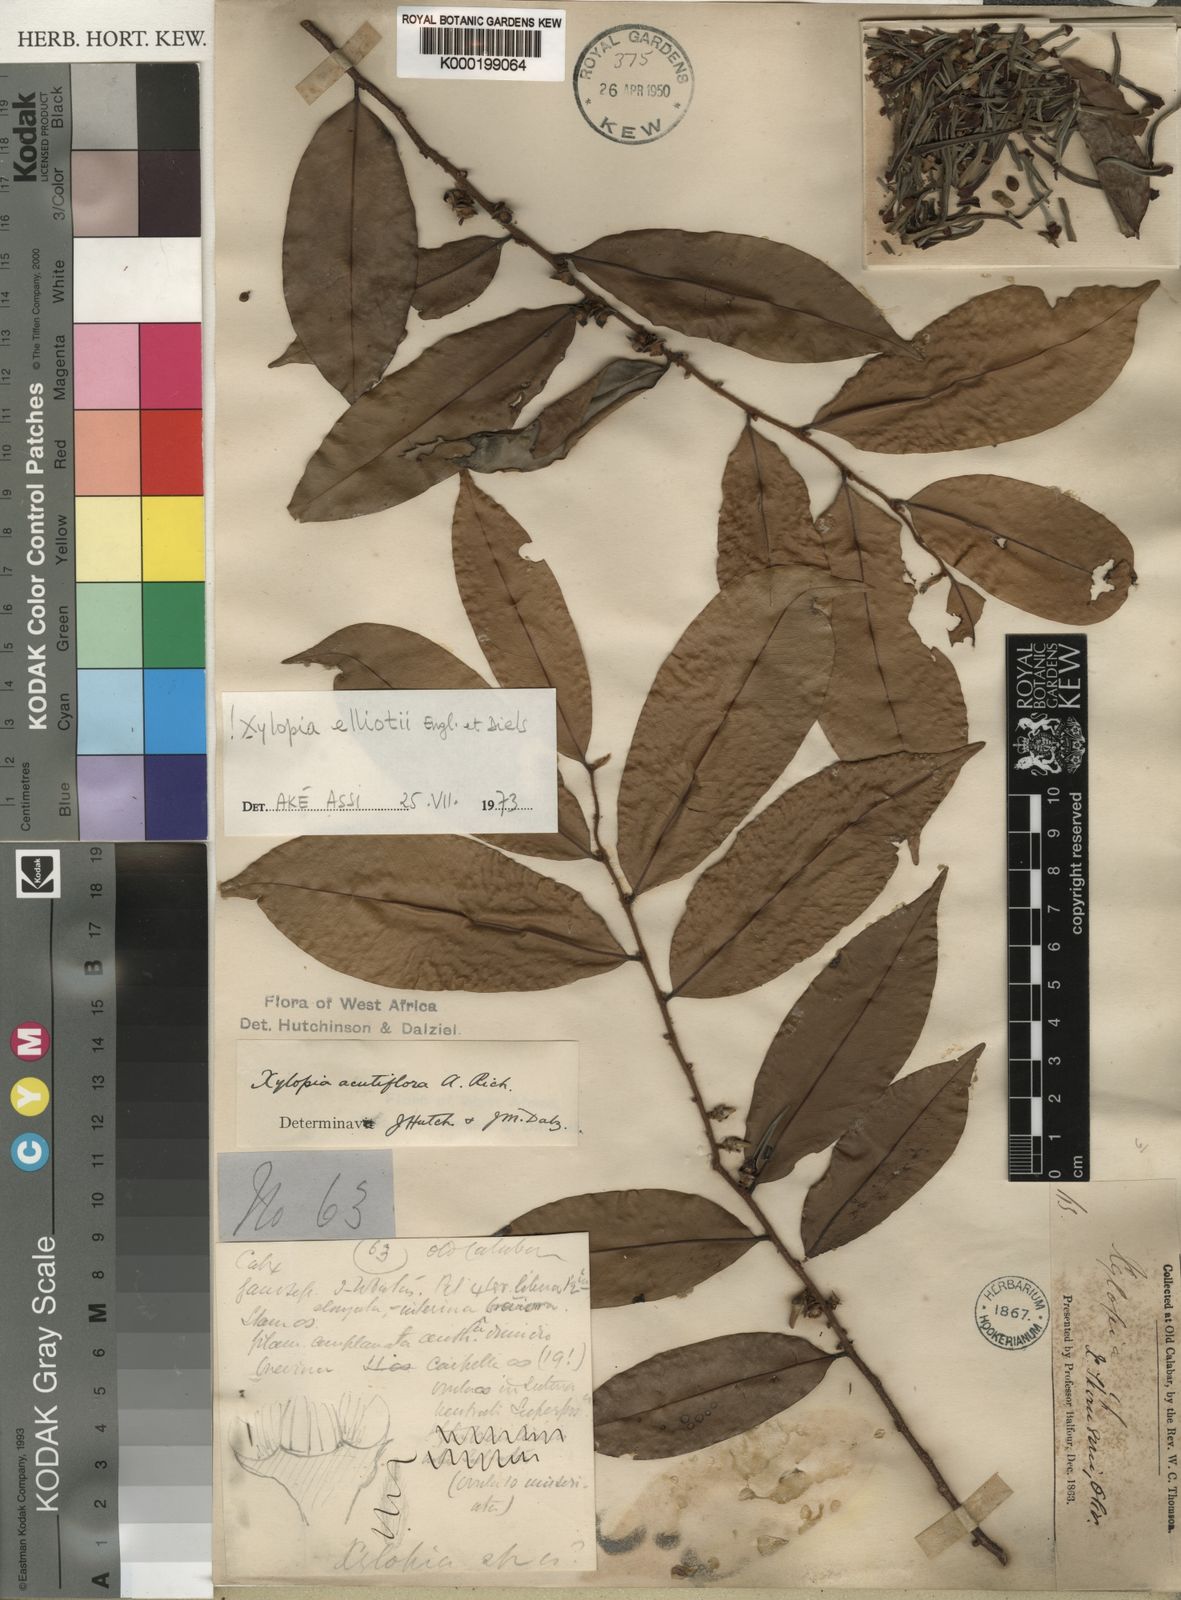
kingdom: Plantae
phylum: Tracheophyta
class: Magnoliopsida
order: Magnoliales
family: Annonaceae
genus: Xylopia
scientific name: Xylopia acutiflora
